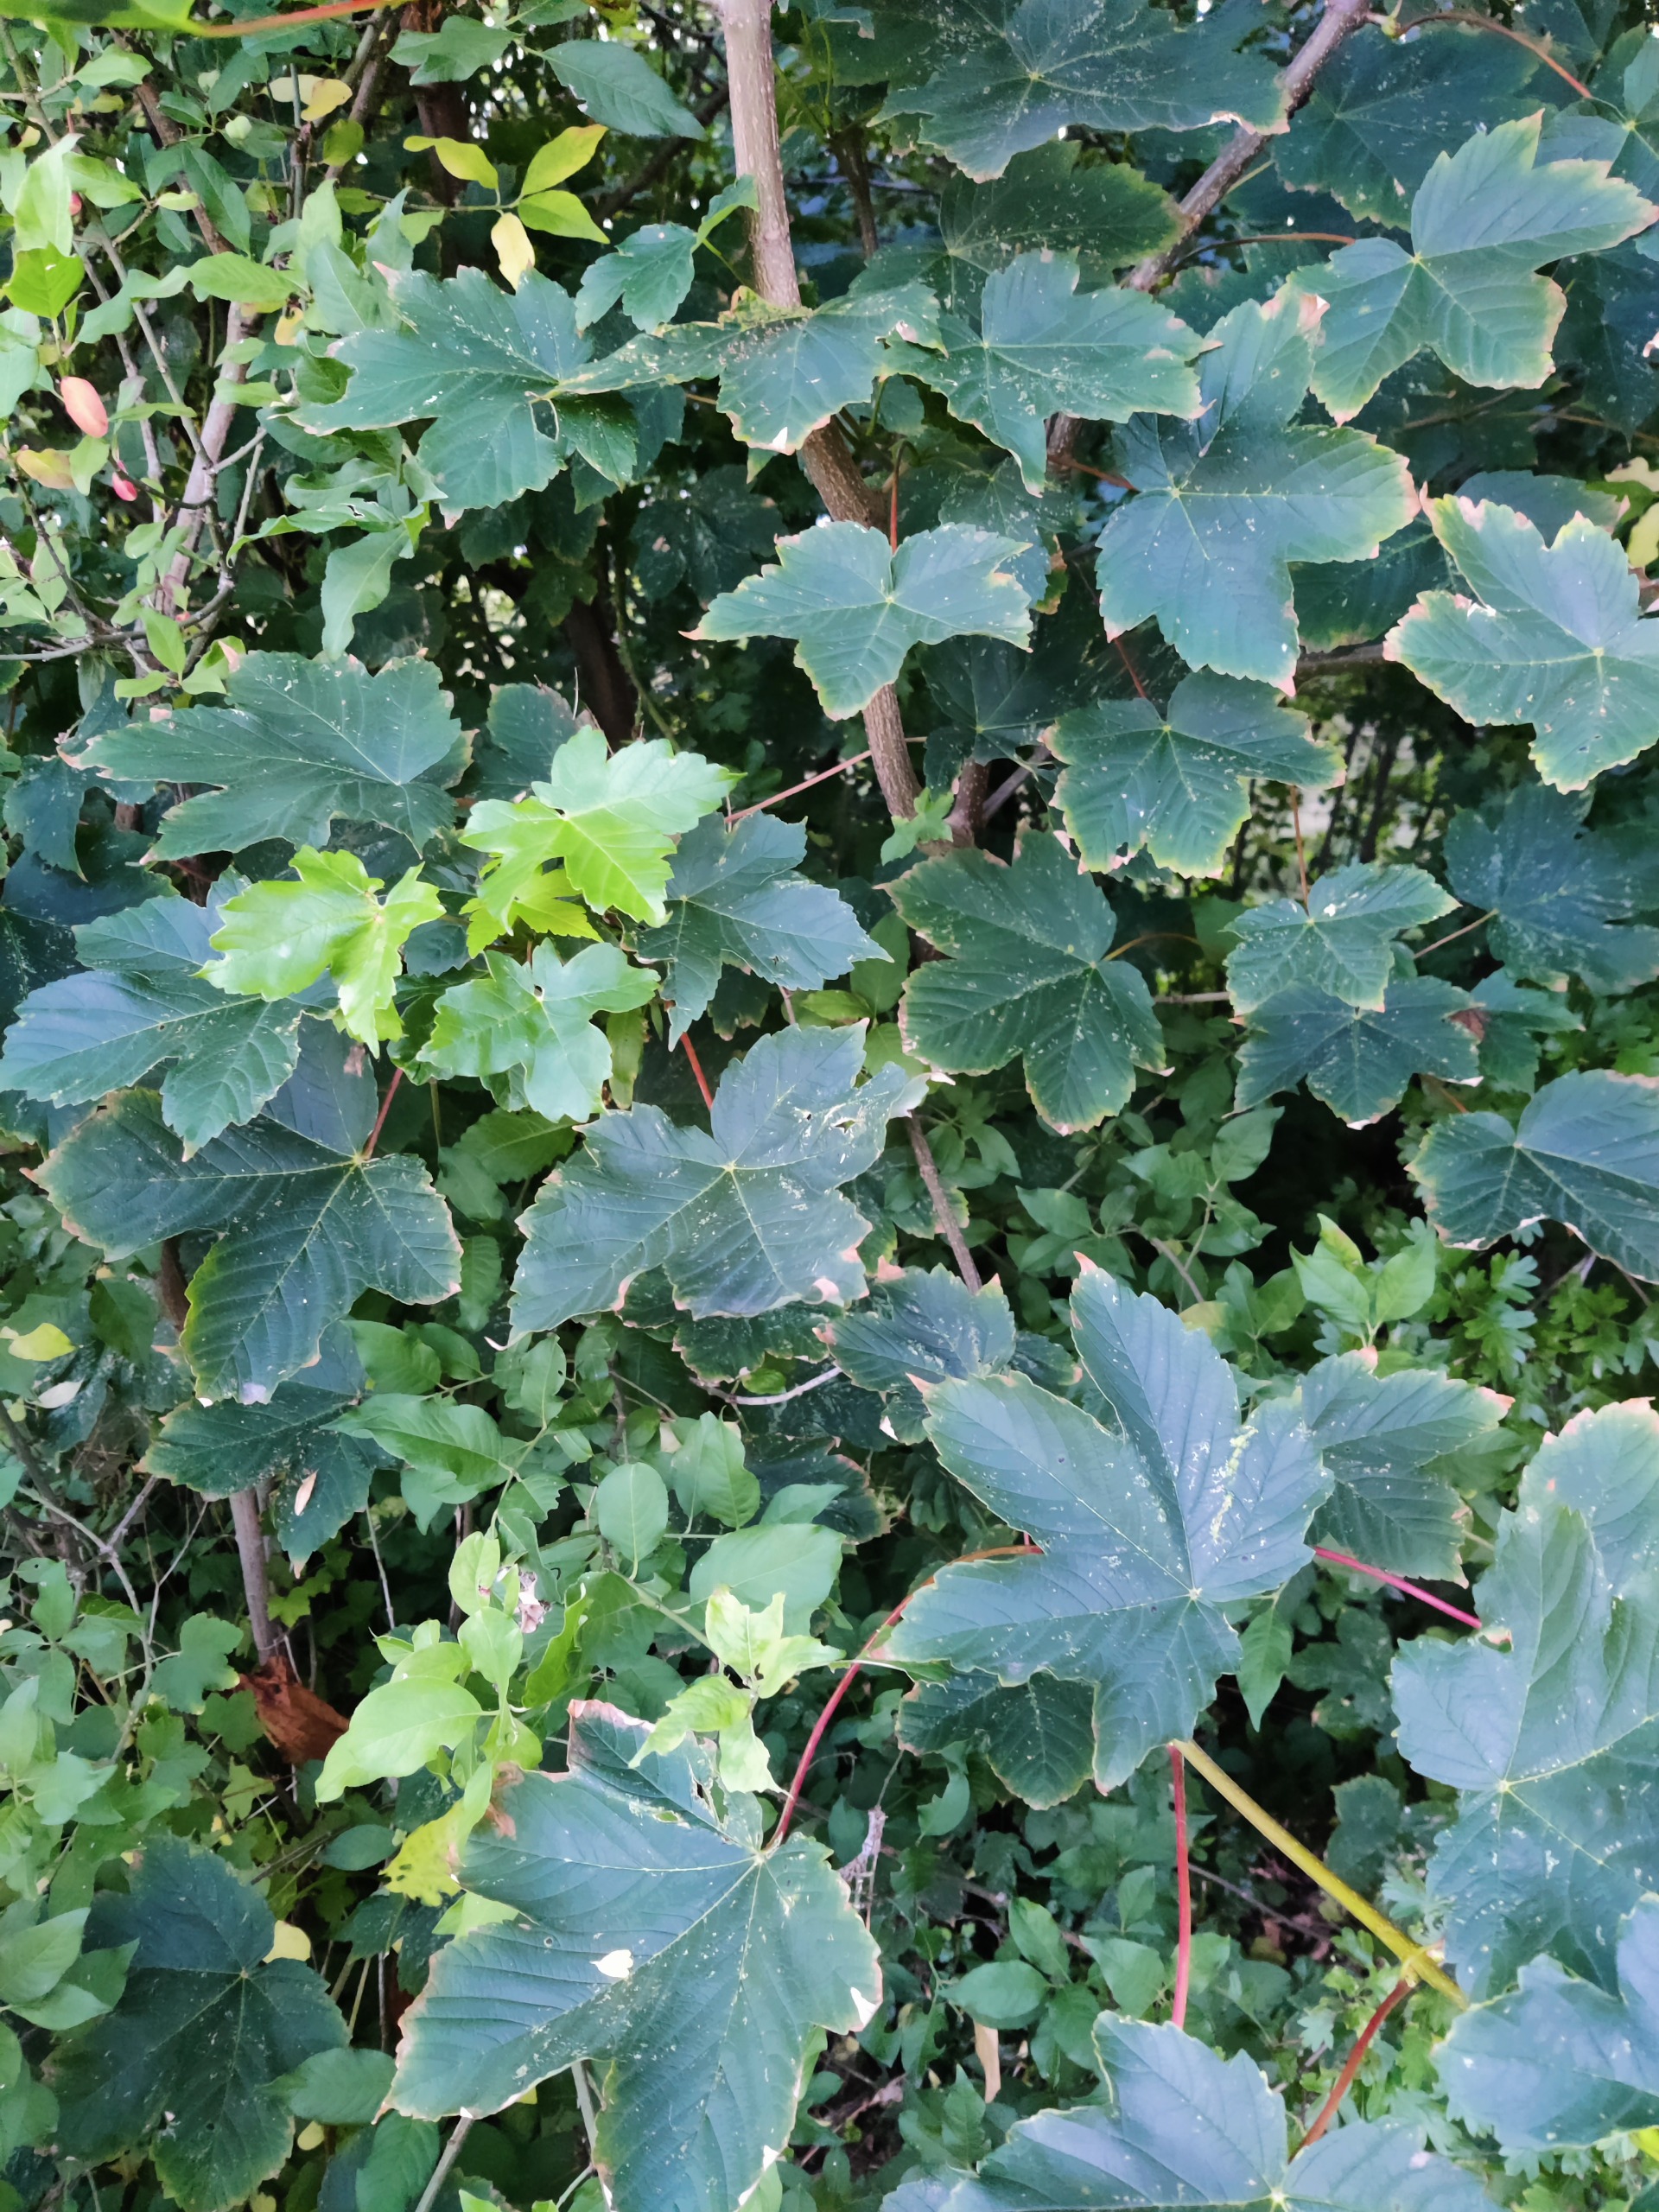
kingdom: Plantae
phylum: Tracheophyta
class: Magnoliopsida
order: Sapindales
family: Sapindaceae
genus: Acer
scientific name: Acer pseudoplatanus
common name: Ahorn
